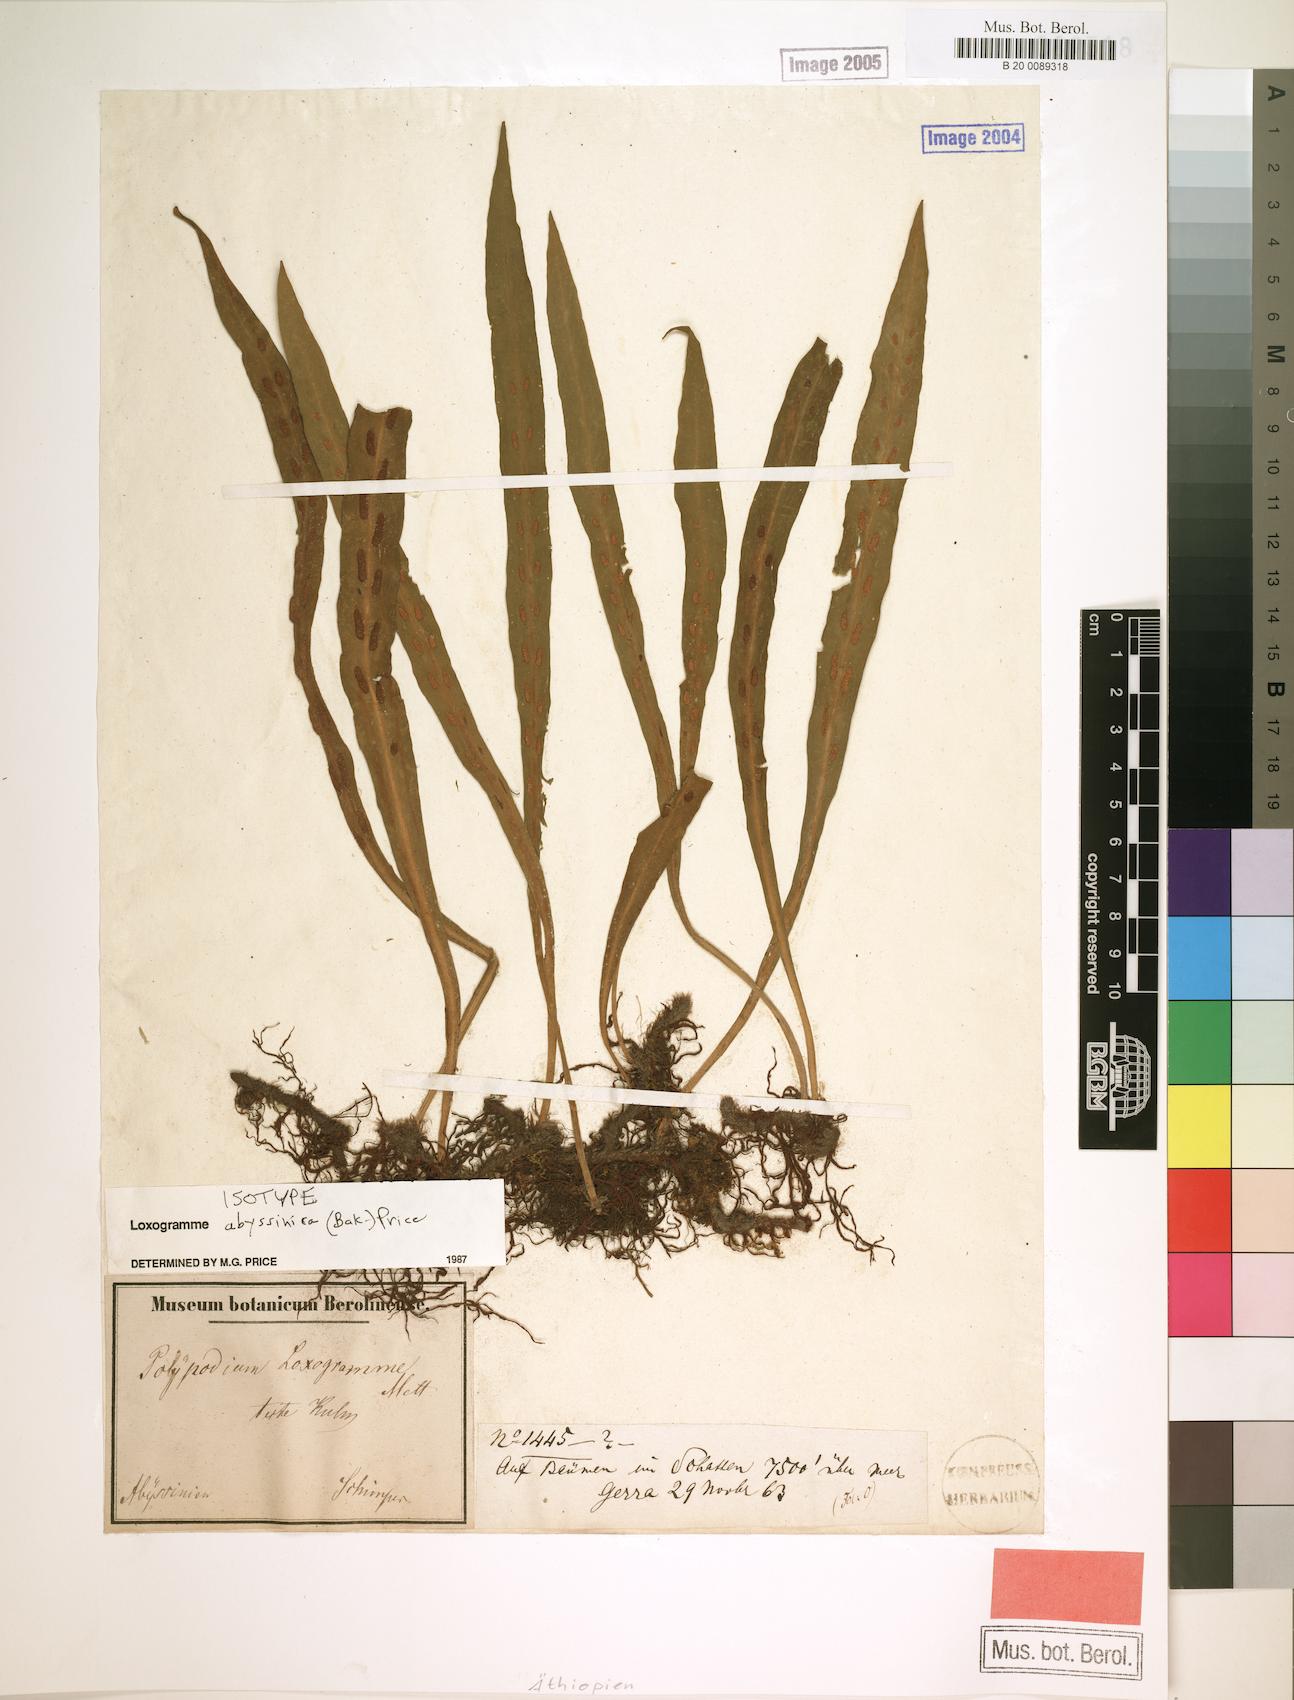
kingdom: Plantae
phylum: Tracheophyta
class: Polypodiopsida
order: Polypodiales
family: Polypodiaceae
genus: Loxogramme
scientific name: Loxogramme abyssinica
